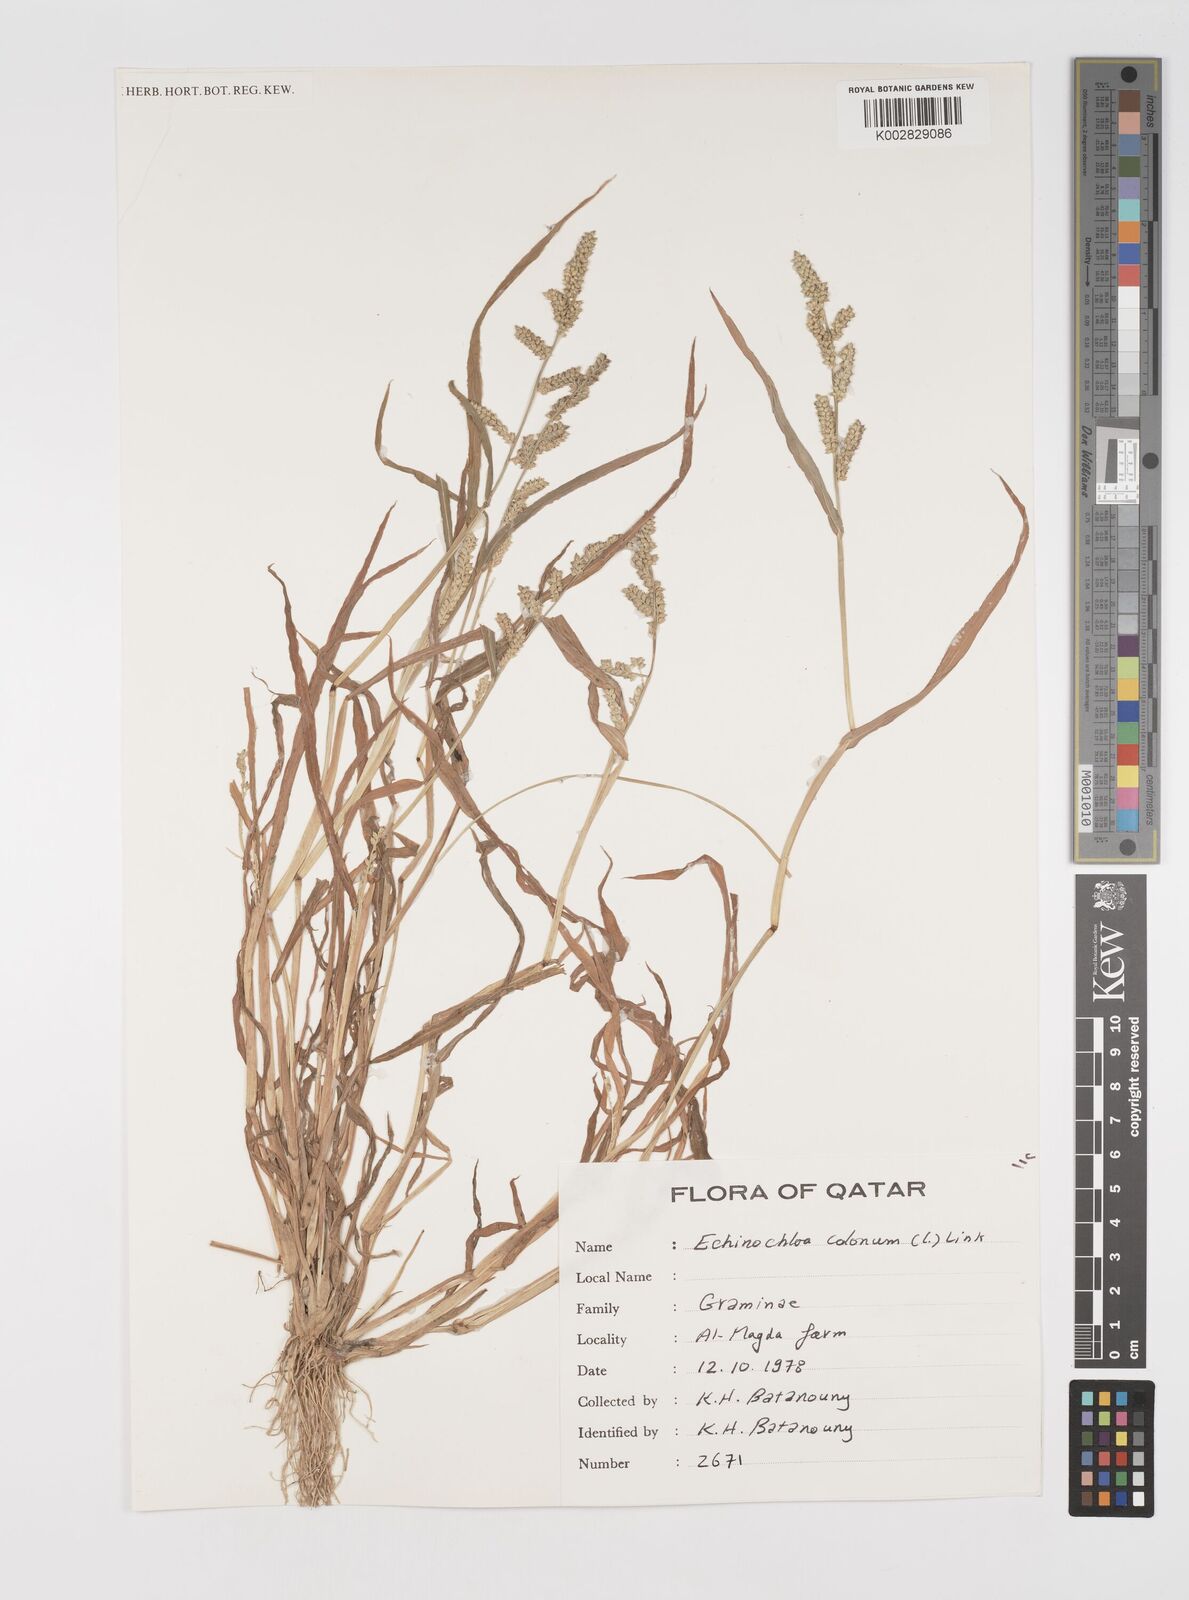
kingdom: Plantae
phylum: Tracheophyta
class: Liliopsida
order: Poales
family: Poaceae
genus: Echinochloa
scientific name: Echinochloa colonum
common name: Jungle rice
